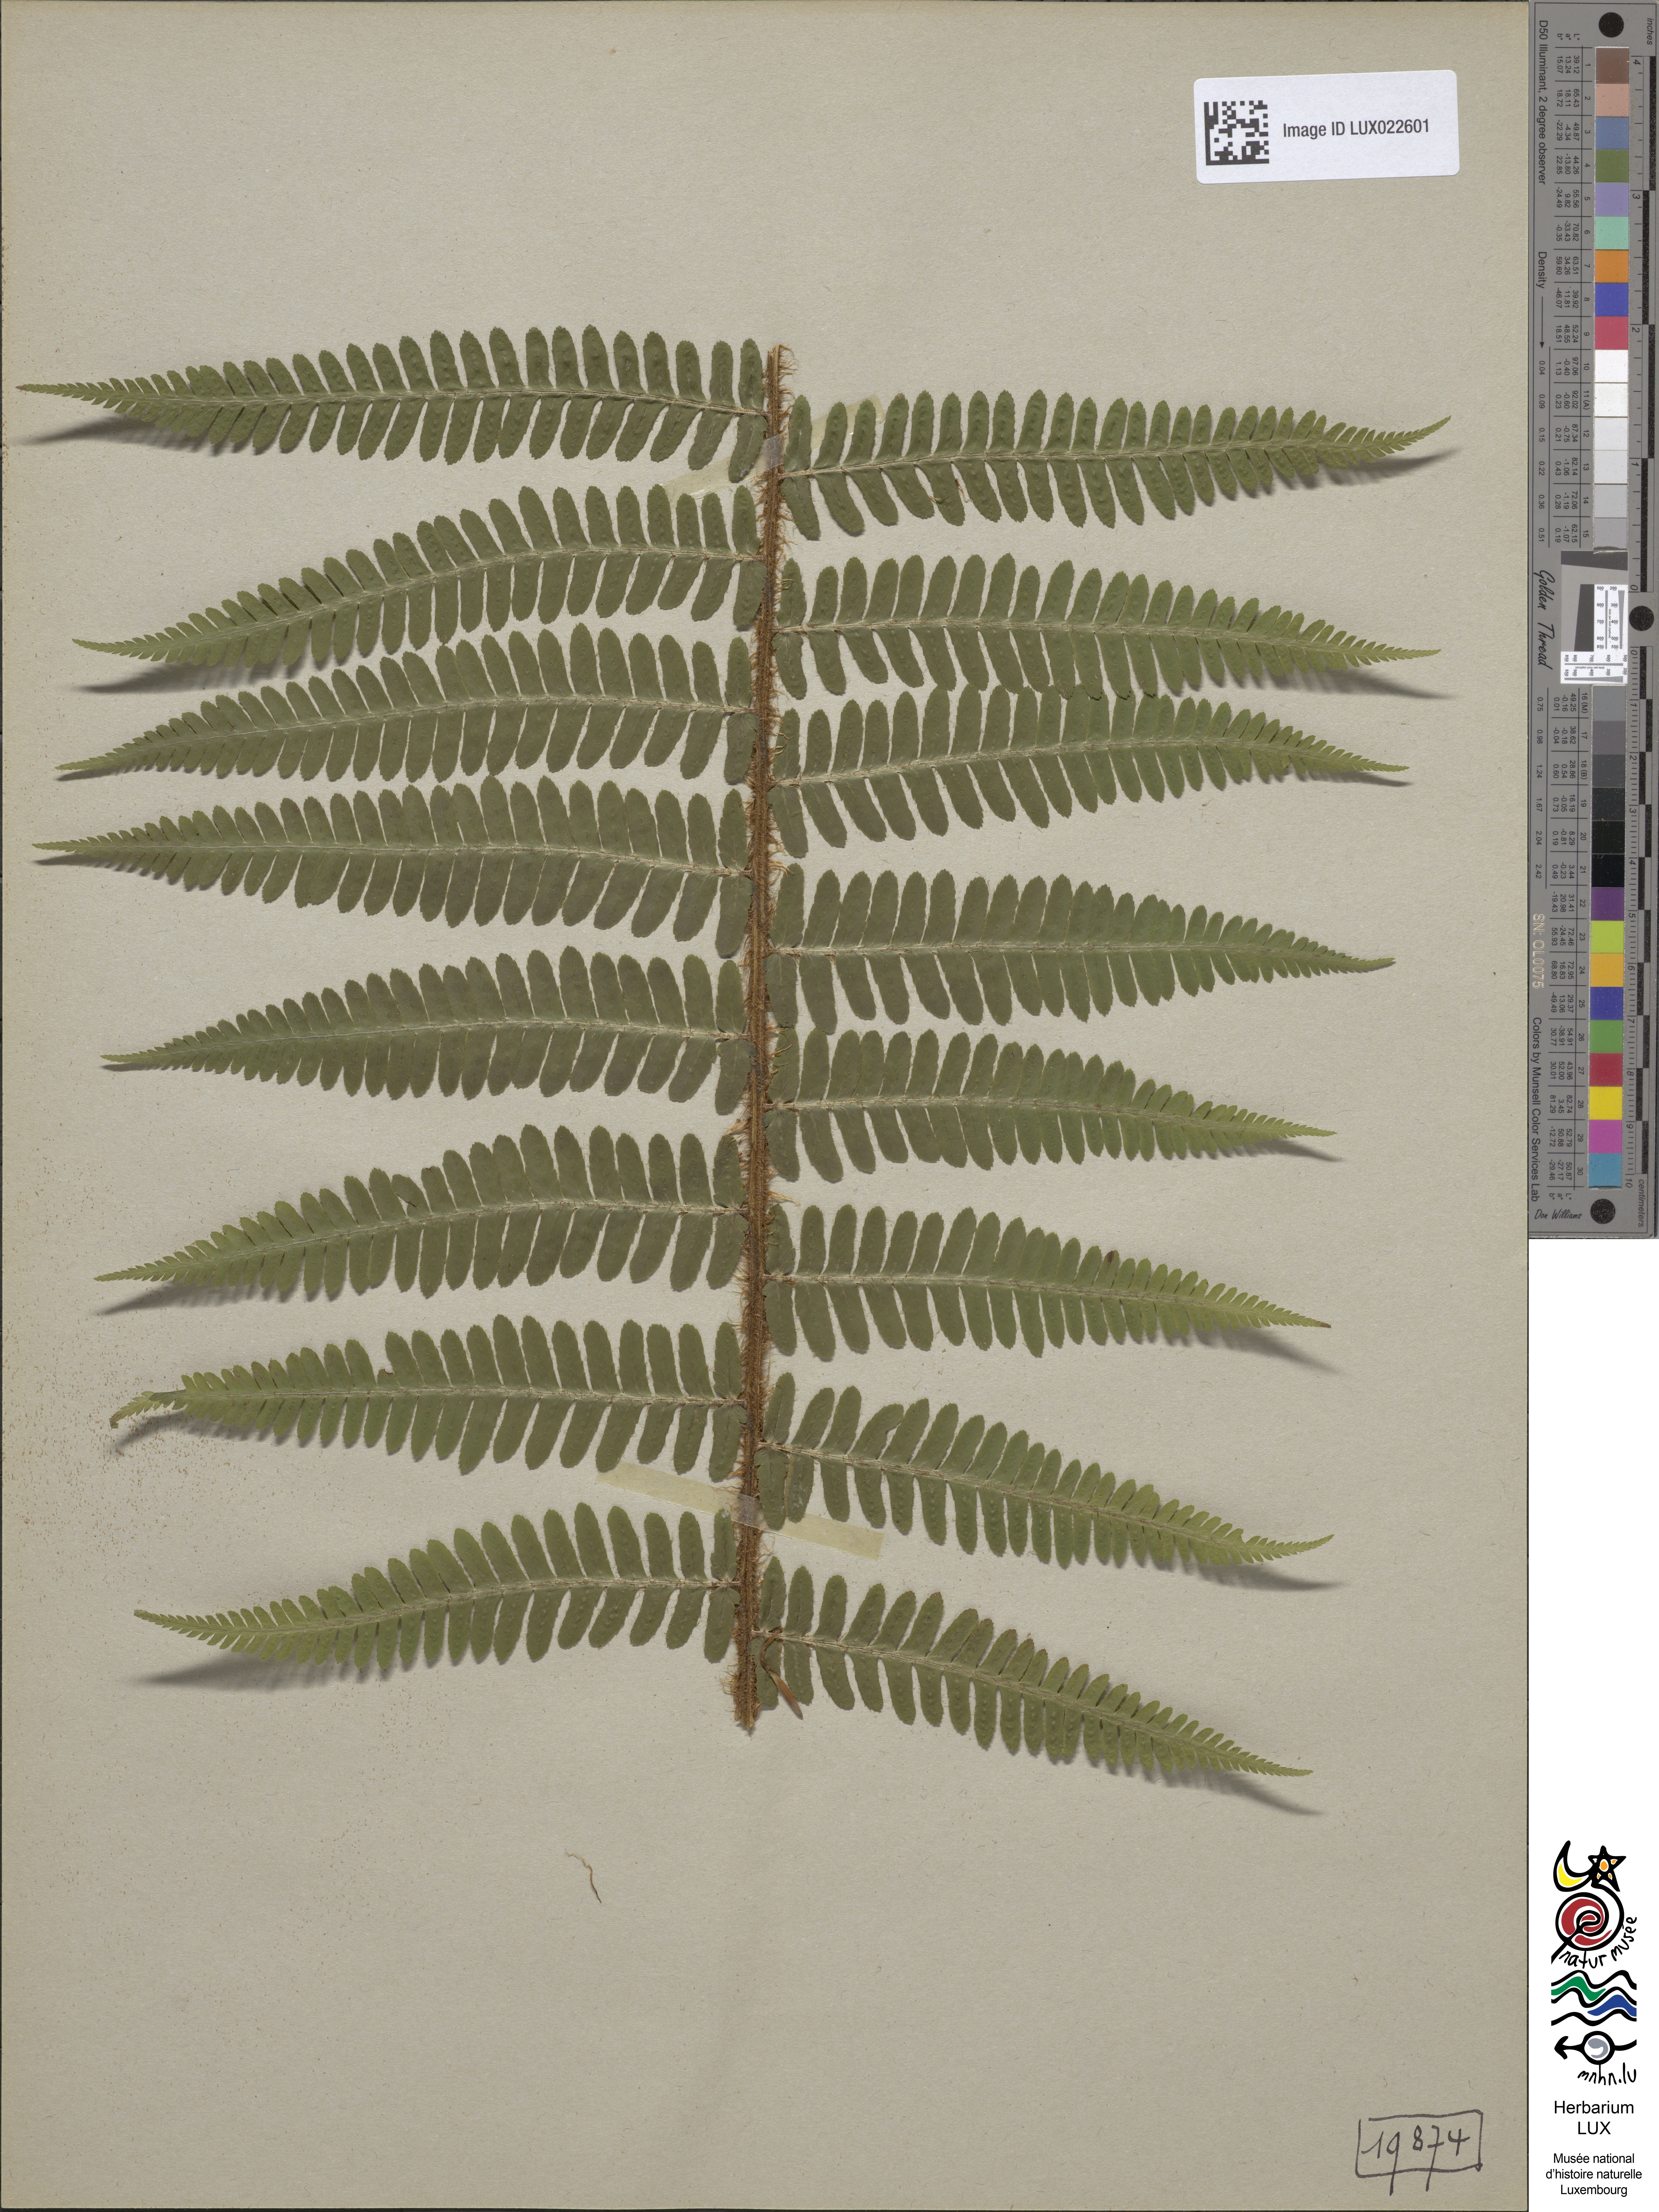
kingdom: Plantae
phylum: Tracheophyta
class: Polypodiopsida
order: Polypodiales
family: Dryopteridaceae
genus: Dryopteris
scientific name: Dryopteris borreri
